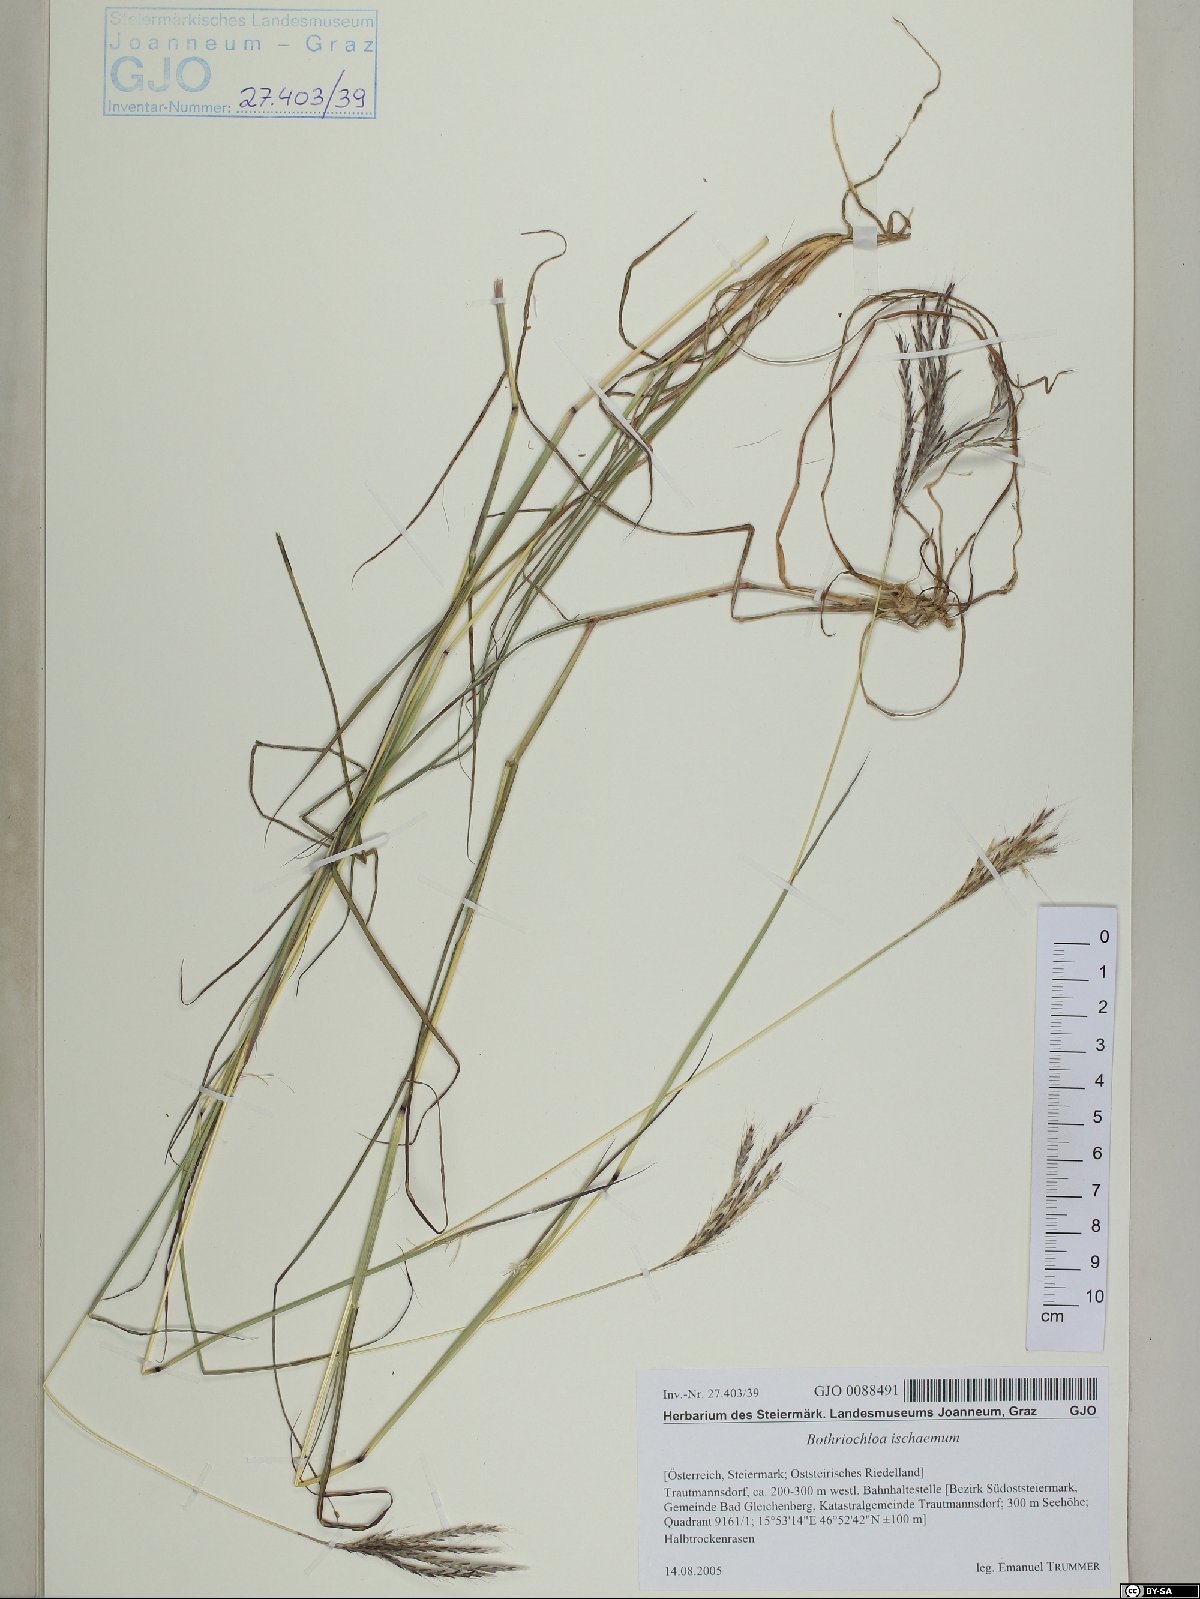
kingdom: Plantae
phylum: Tracheophyta
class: Liliopsida
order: Poales
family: Poaceae
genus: Bothriochloa
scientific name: Bothriochloa ischaemum
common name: Yellow bluestem
